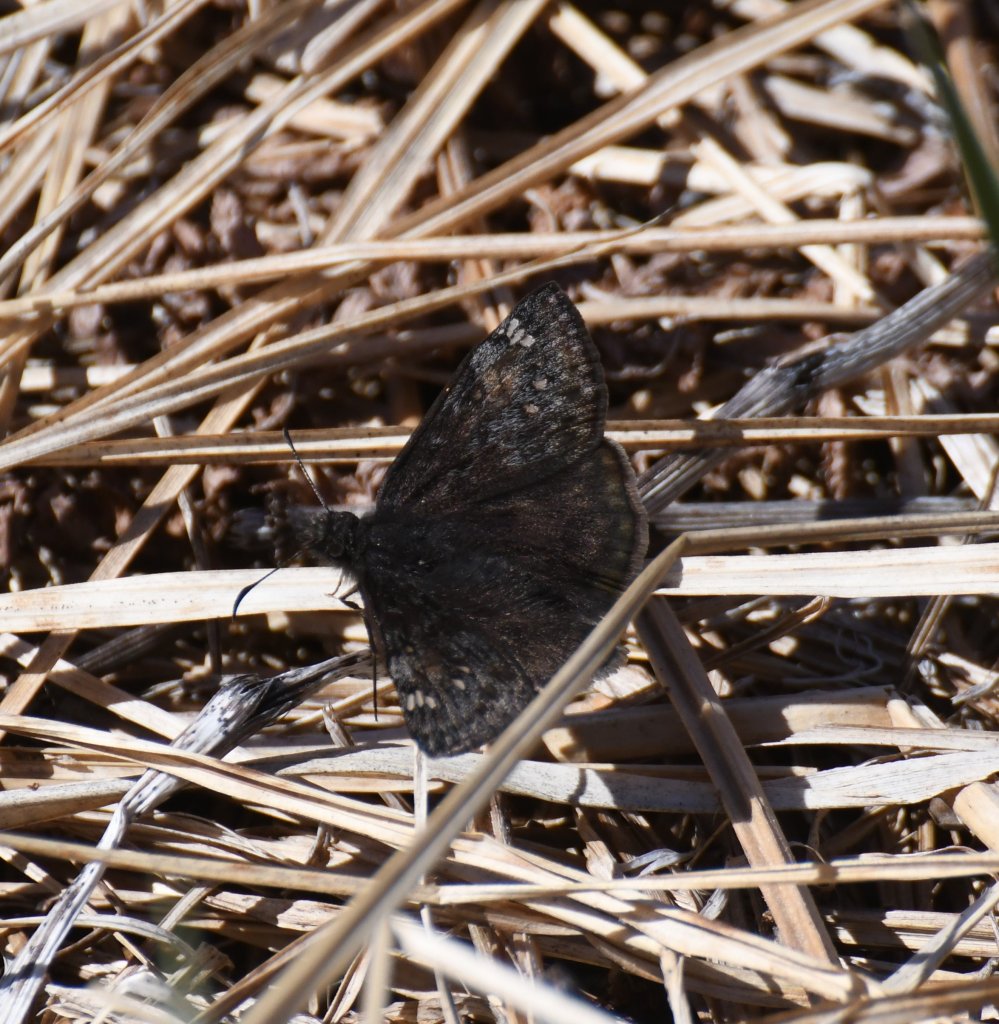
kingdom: Animalia
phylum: Arthropoda
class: Insecta
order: Lepidoptera
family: Hesperiidae
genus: Gesta
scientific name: Gesta
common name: Juvenal's Duskywing
